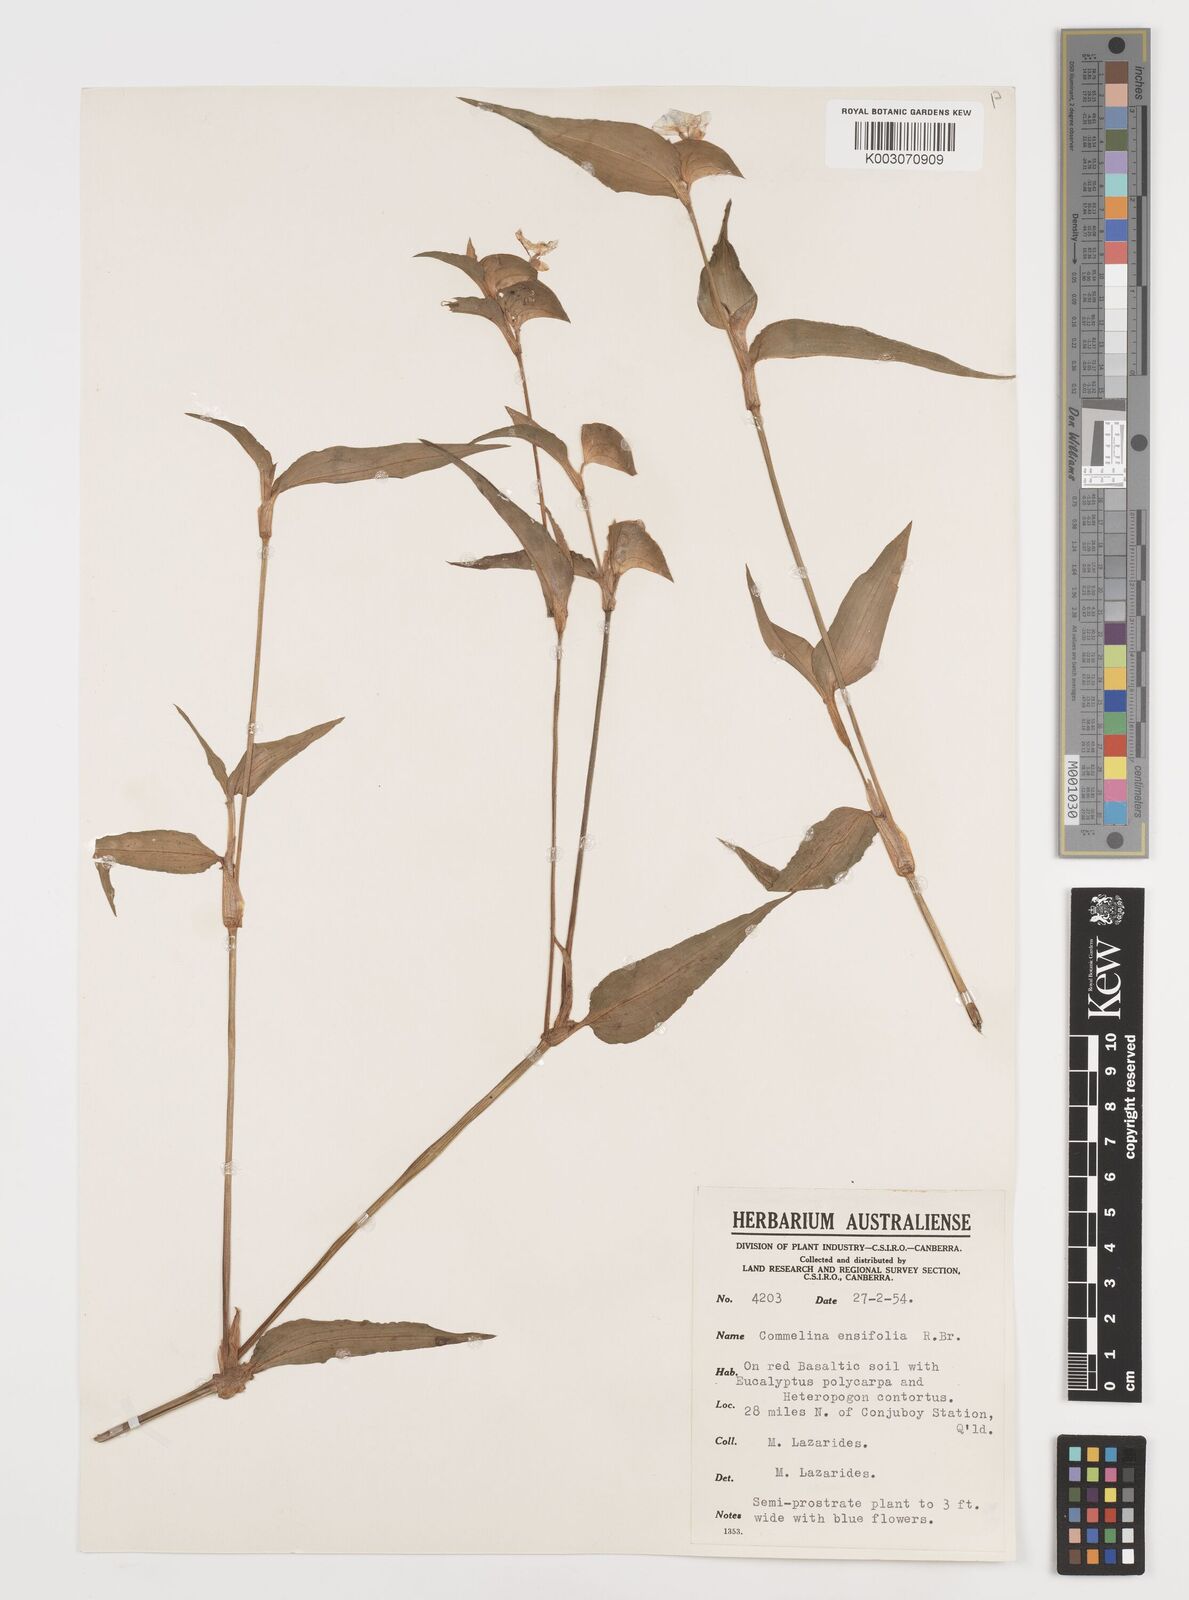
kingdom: Plantae
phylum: Tracheophyta
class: Liliopsida
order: Commelinales
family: Commelinaceae
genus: Commelina
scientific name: Commelina ensifolia
